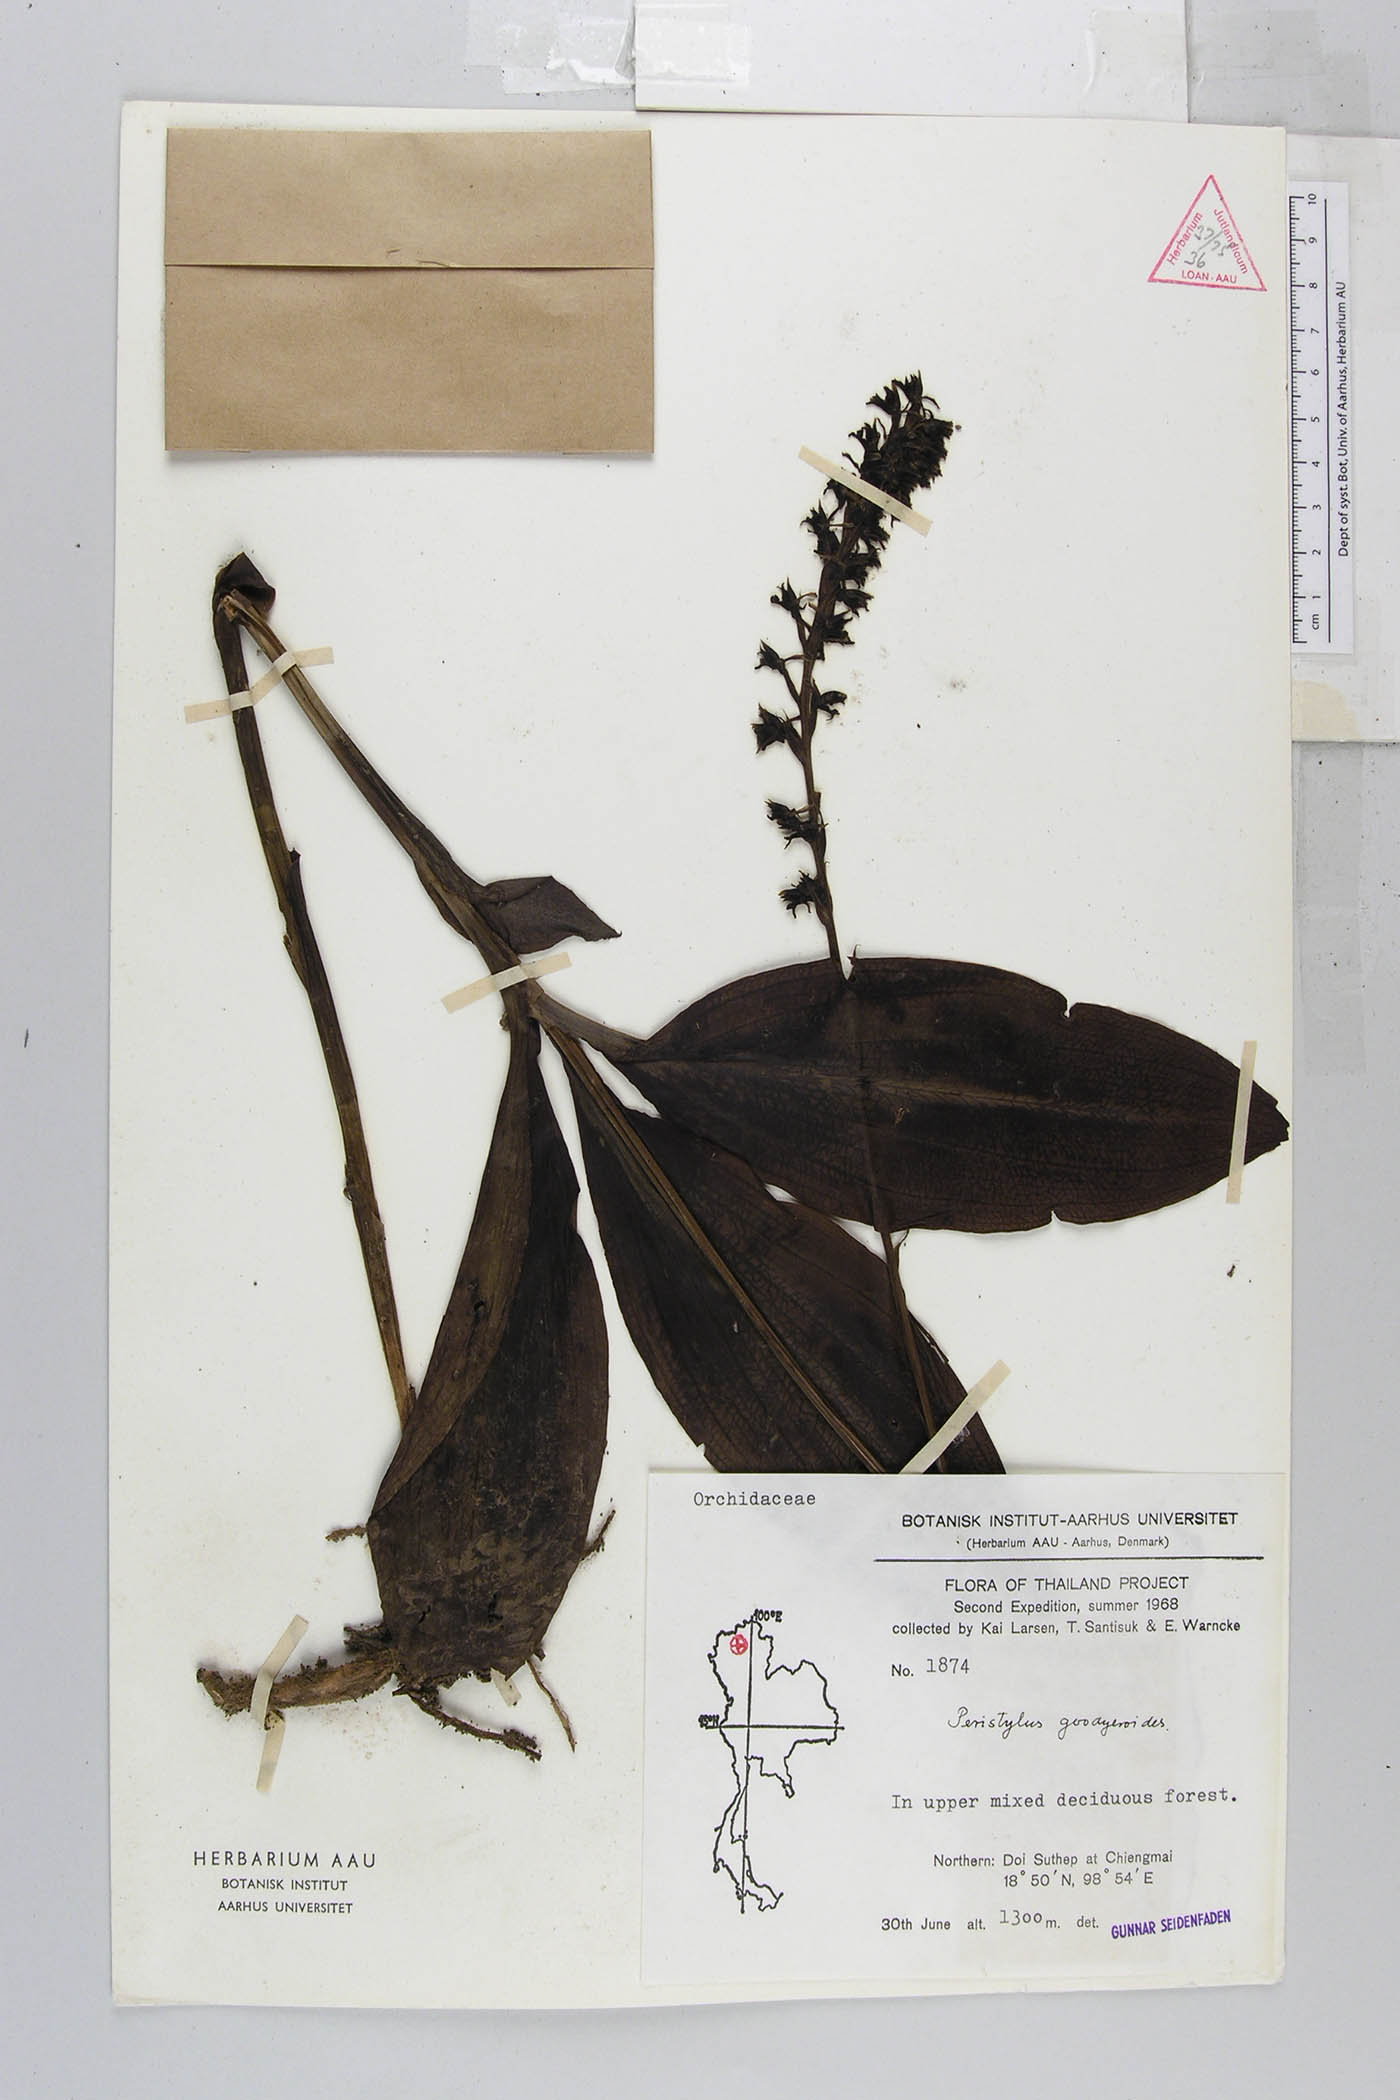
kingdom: Plantae
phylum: Tracheophyta
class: Liliopsida
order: Asparagales
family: Orchidaceae
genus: Peristylus
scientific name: Peristylus goodyeroides
